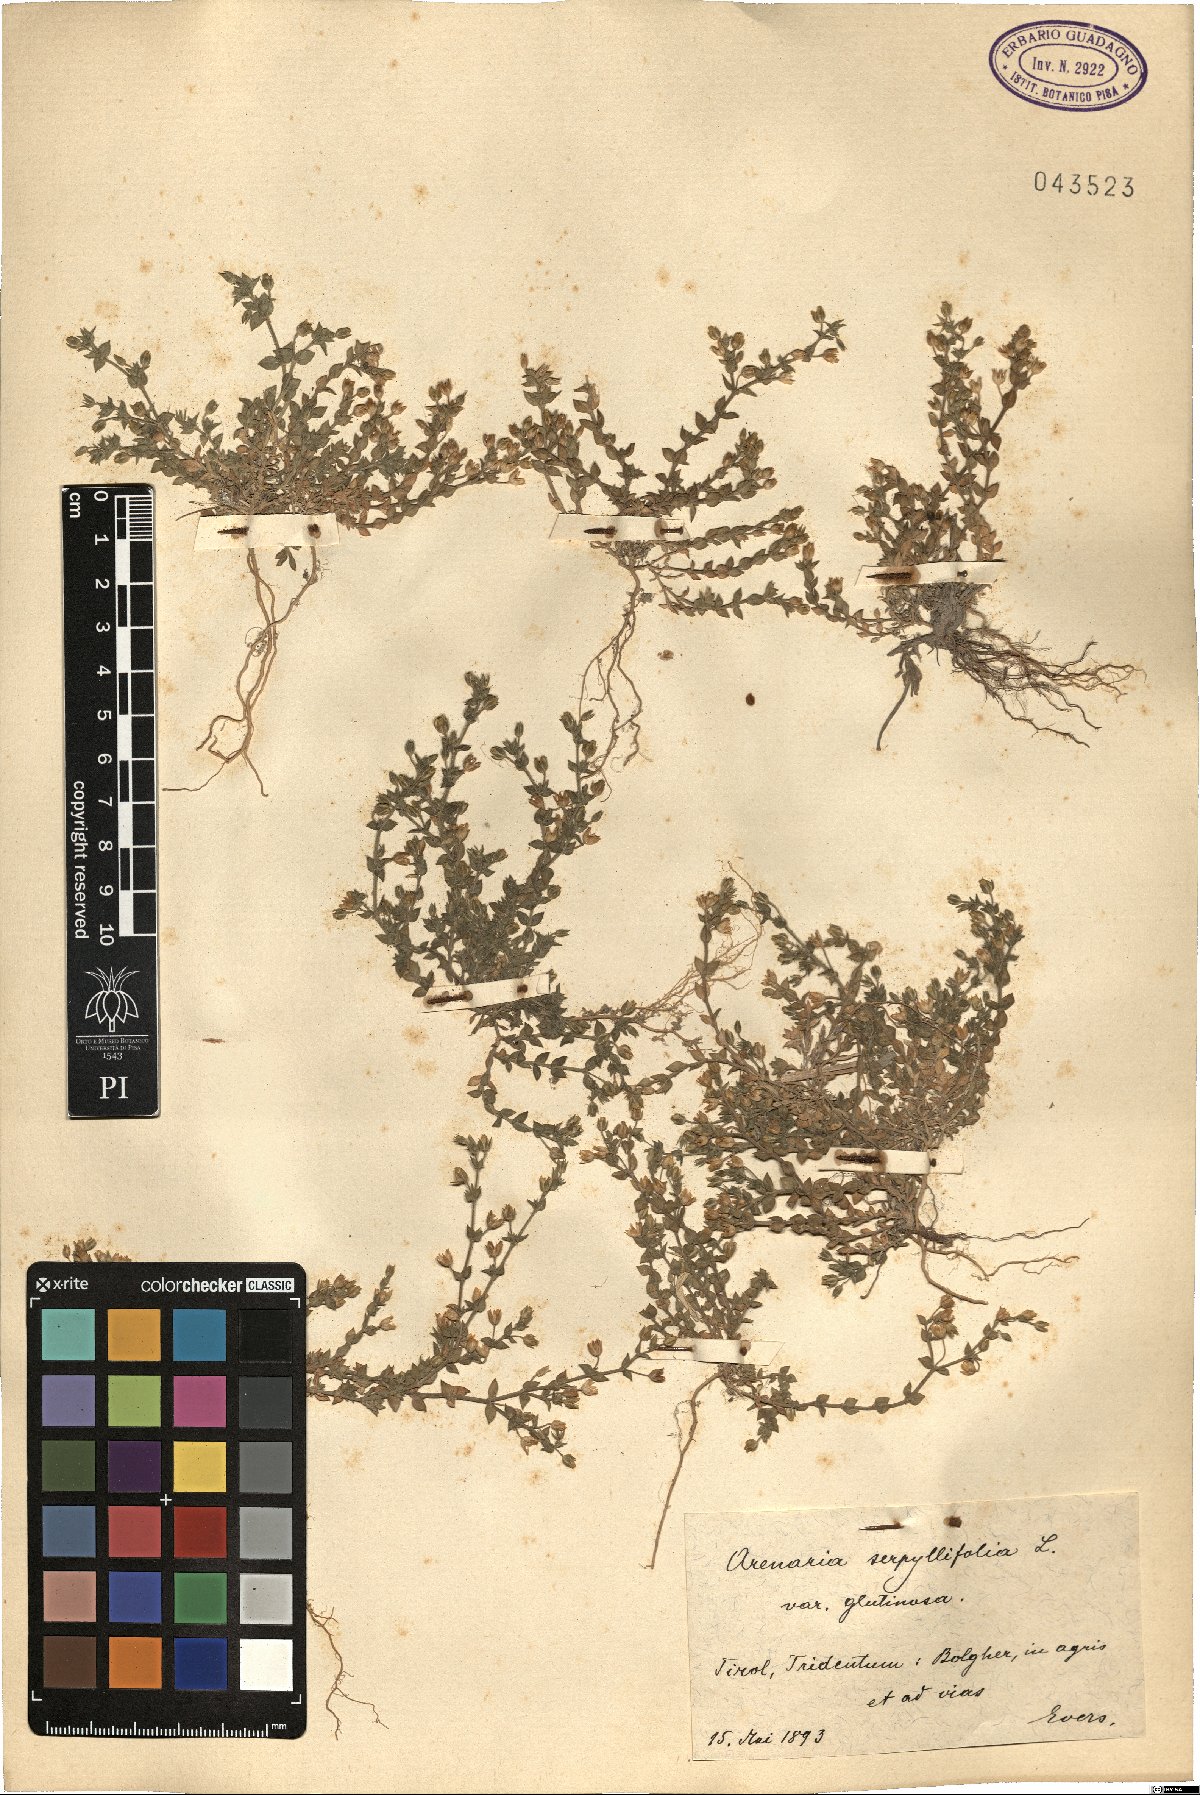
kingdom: Plantae
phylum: Tracheophyta
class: Magnoliopsida
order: Caryophyllales
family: Caryophyllaceae
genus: Arenaria
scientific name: Arenaria serpyllifolia
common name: Thyme-leaved sandwort
